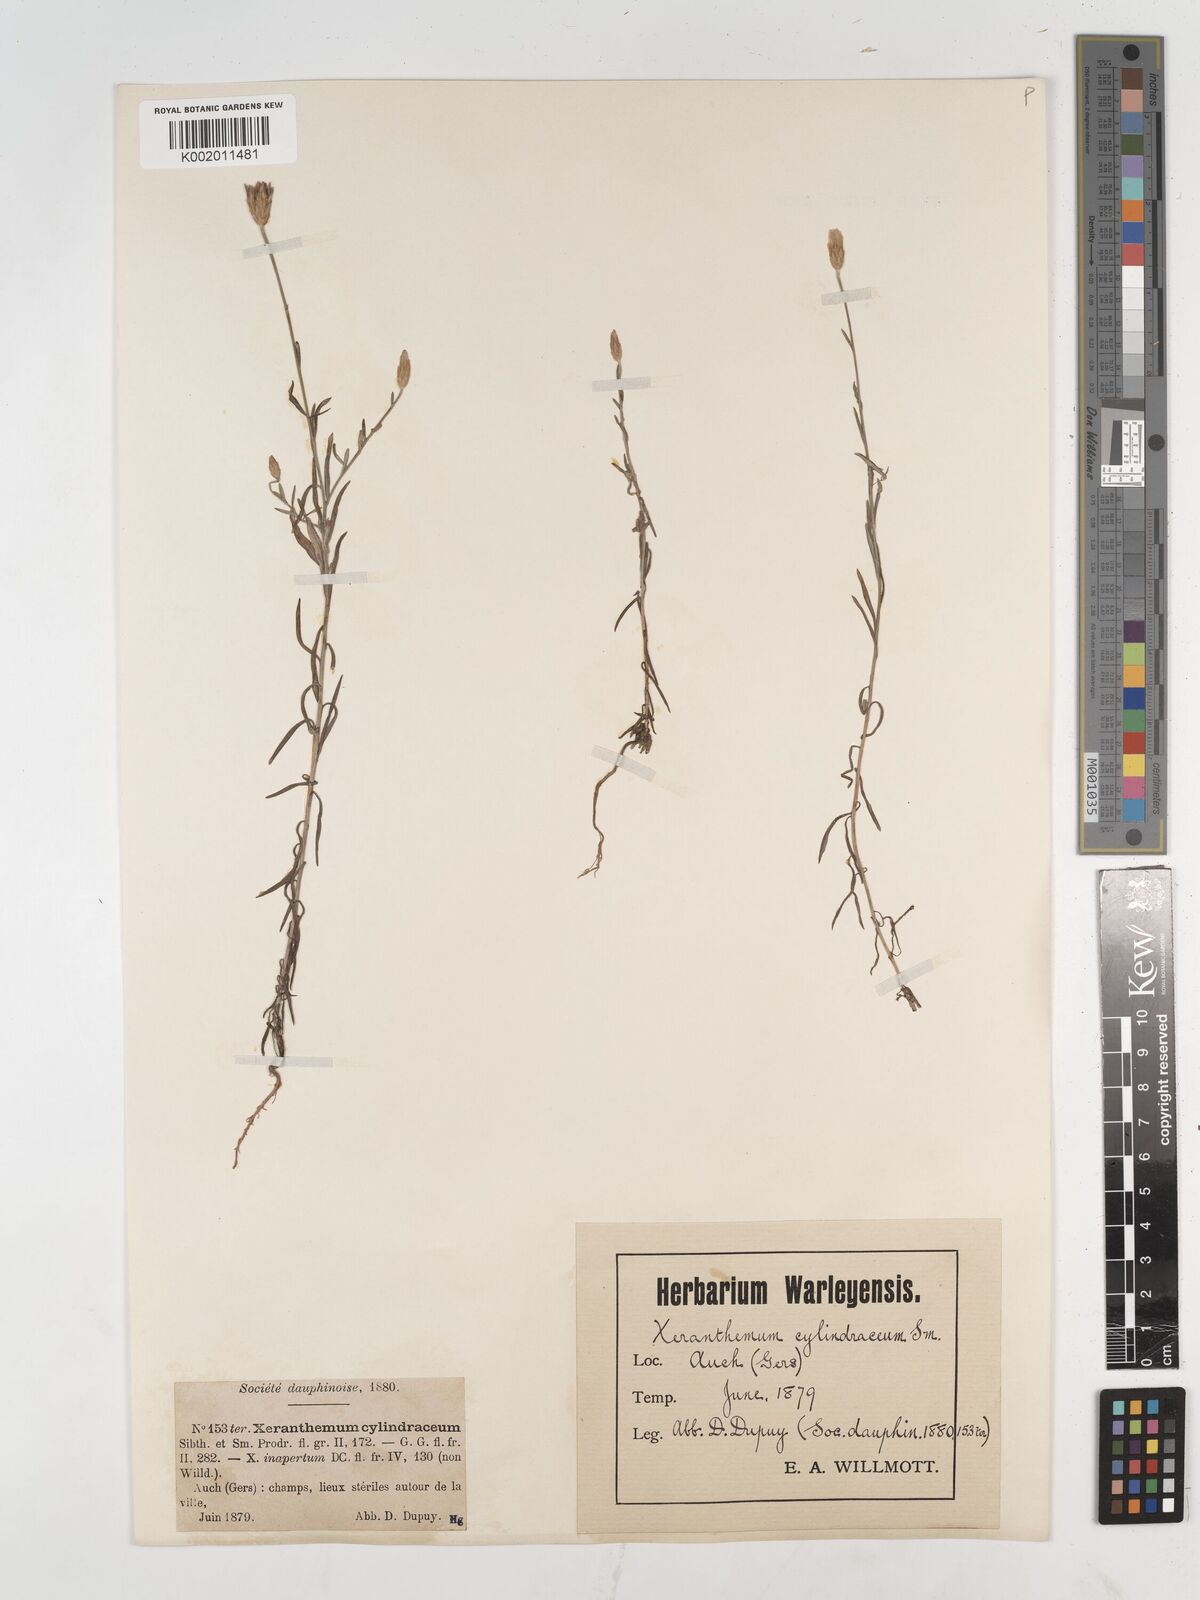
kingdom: Plantae
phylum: Tracheophyta
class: Magnoliopsida
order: Asterales
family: Asteraceae
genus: Xeranthemum
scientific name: Xeranthemum cylindraceum
